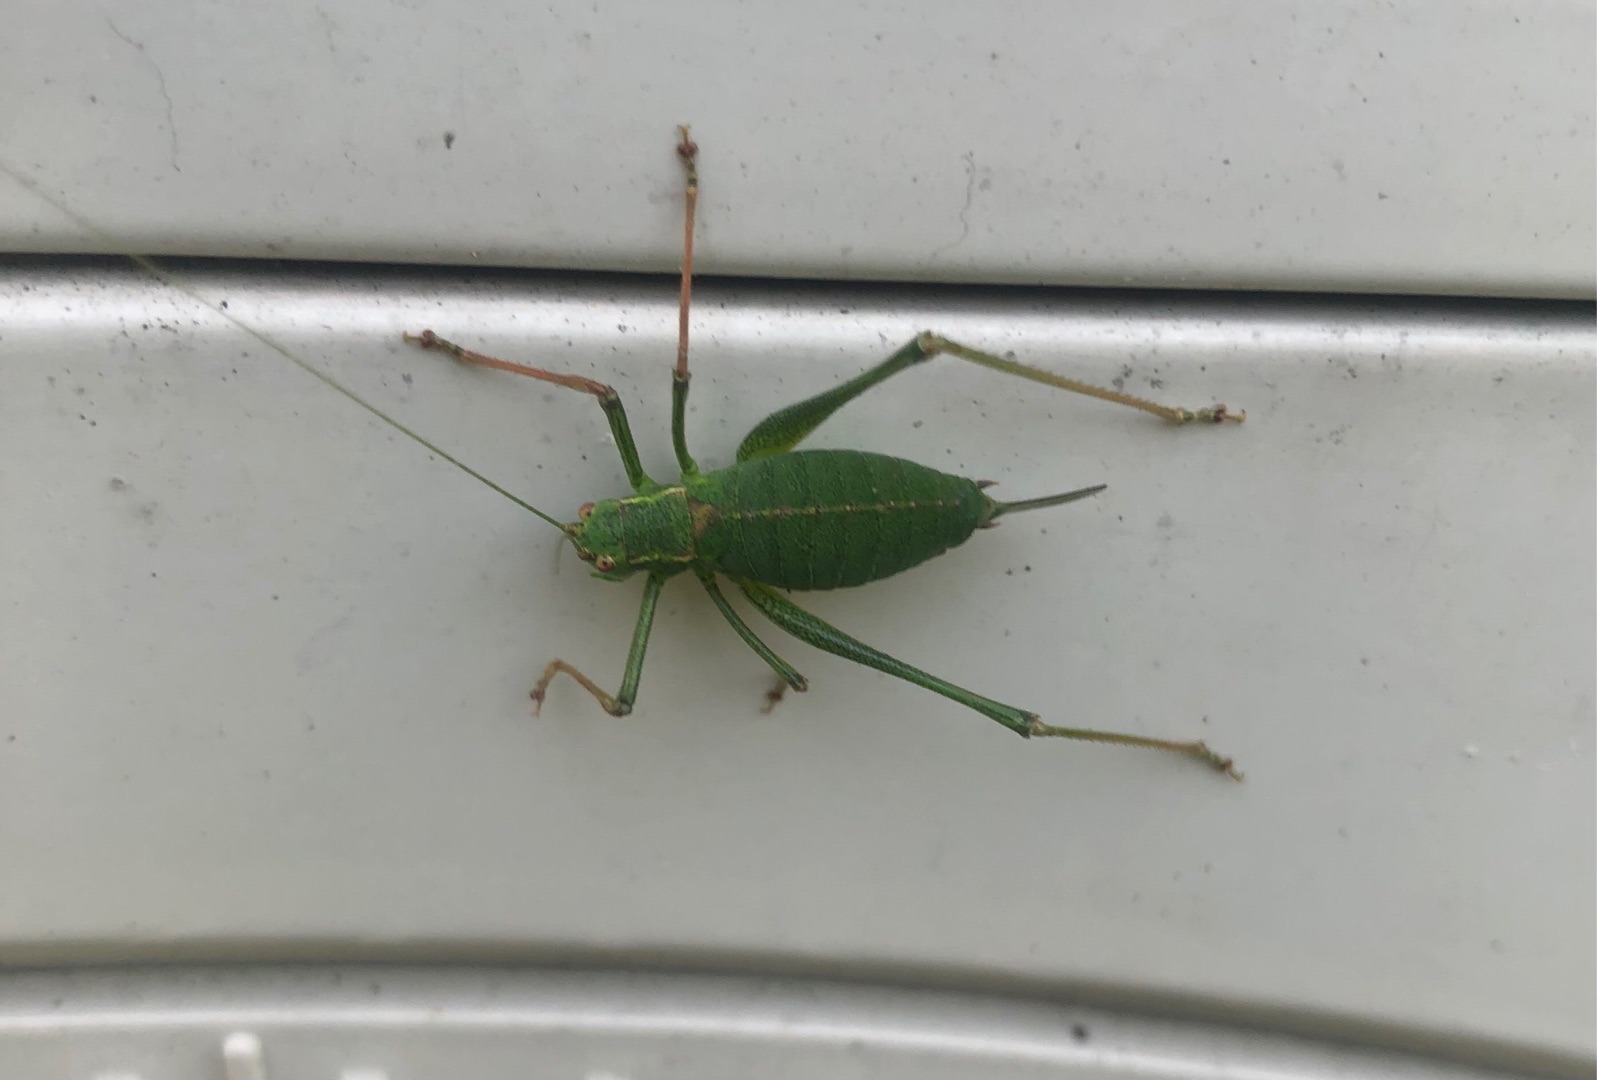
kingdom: Animalia
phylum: Arthropoda
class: Insecta
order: Orthoptera
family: Tettigoniidae
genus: Leptophyes
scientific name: Leptophyes punctatissima
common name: Krumknivgræshoppe
